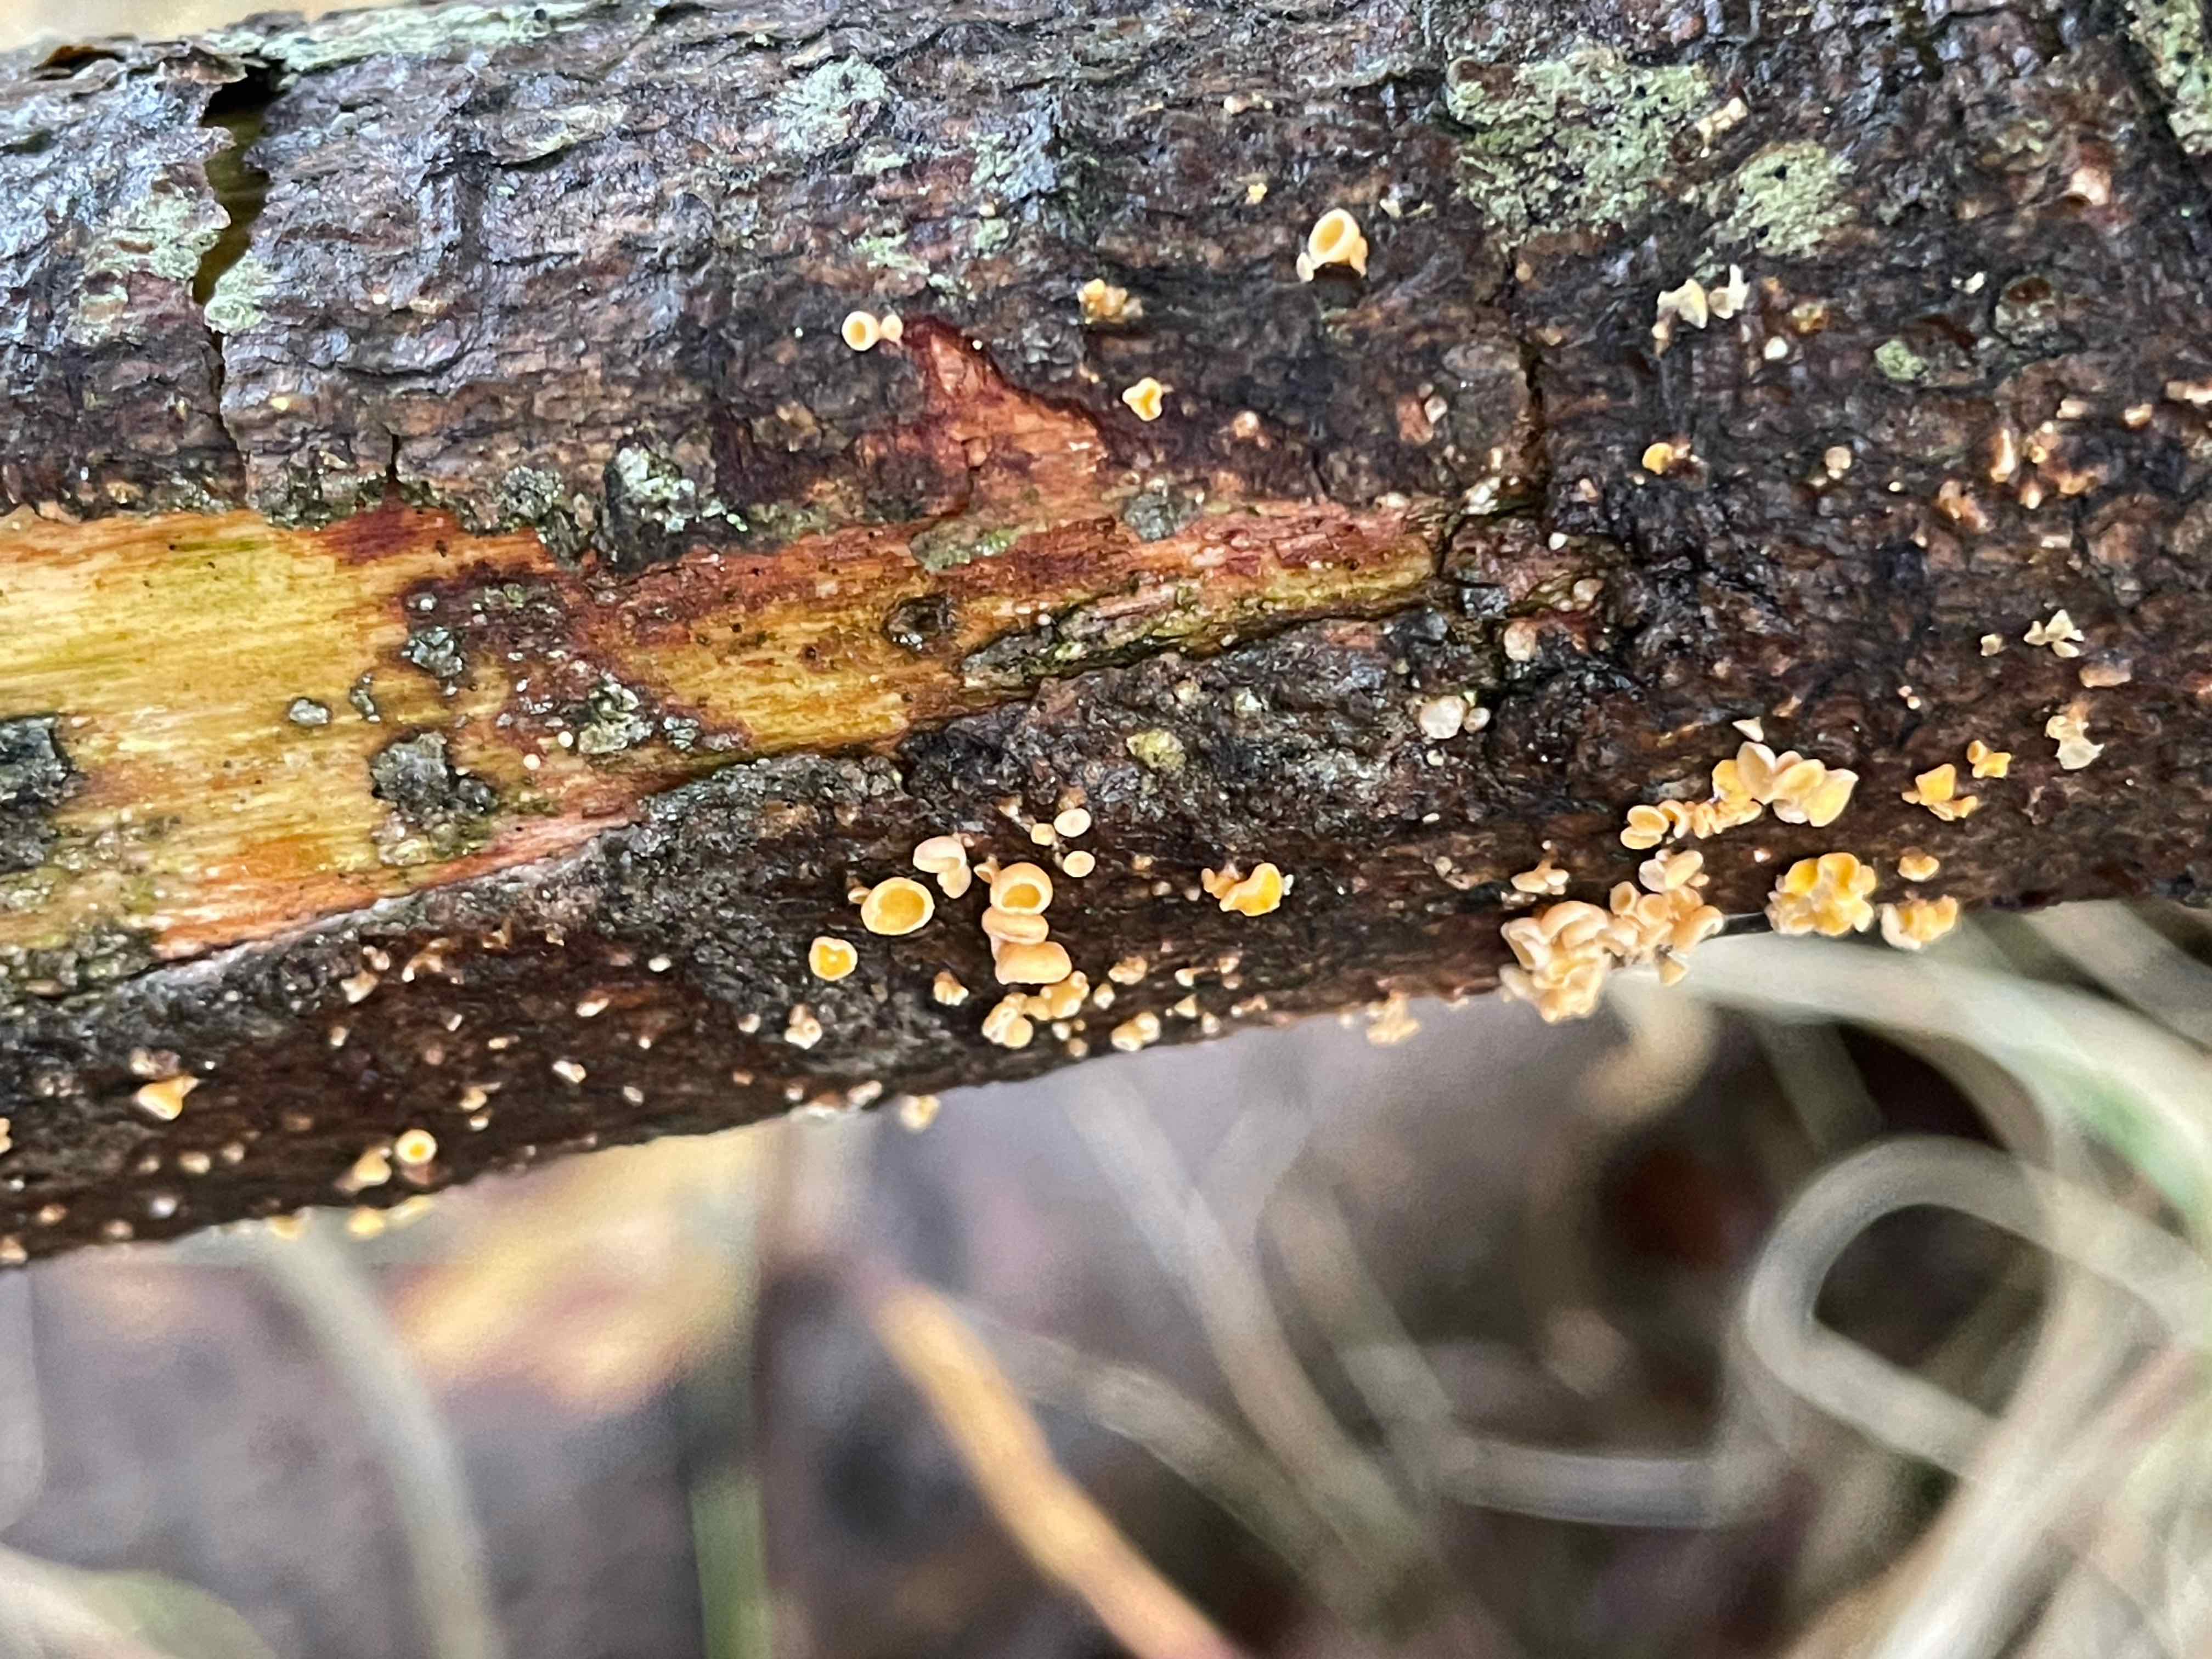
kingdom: Fungi
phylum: Ascomycota
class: Leotiomycetes
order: Helotiales
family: Lachnaceae
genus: Lachnellula
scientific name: Lachnellula
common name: frynseskive
